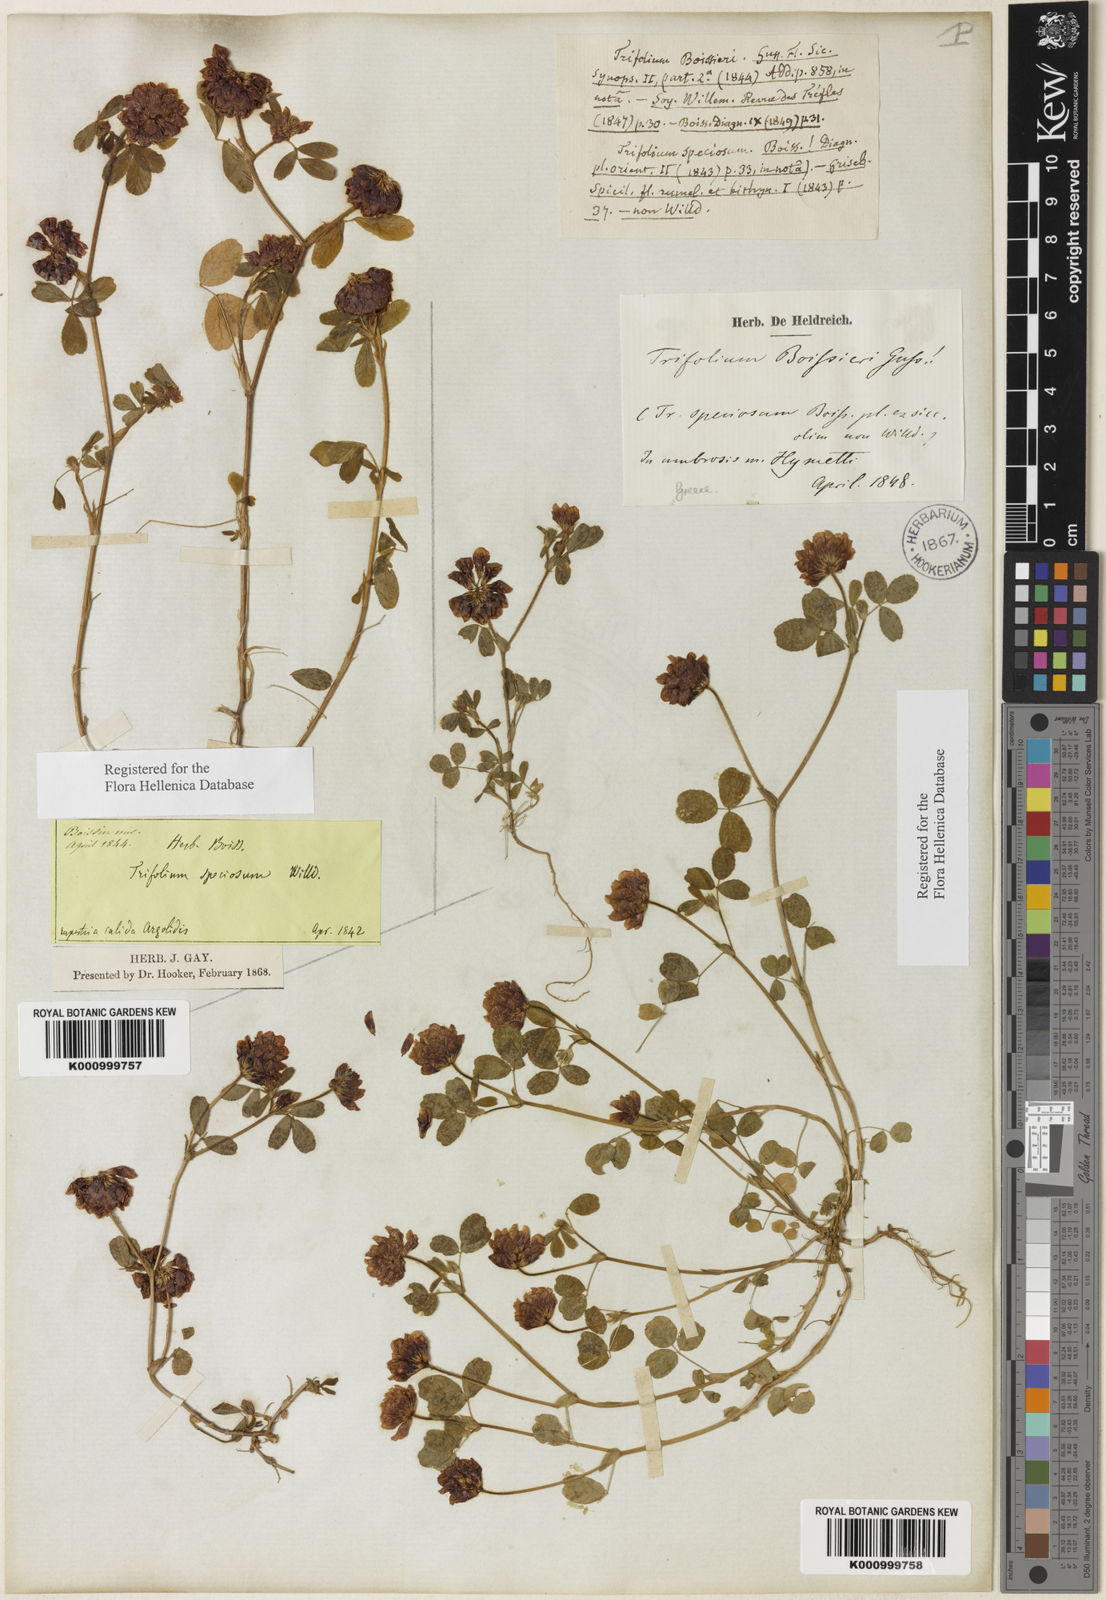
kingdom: Plantae
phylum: Tracheophyta
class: Magnoliopsida
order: Fabales
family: Fabaceae
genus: Trifolium
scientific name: Trifolium boissieri
